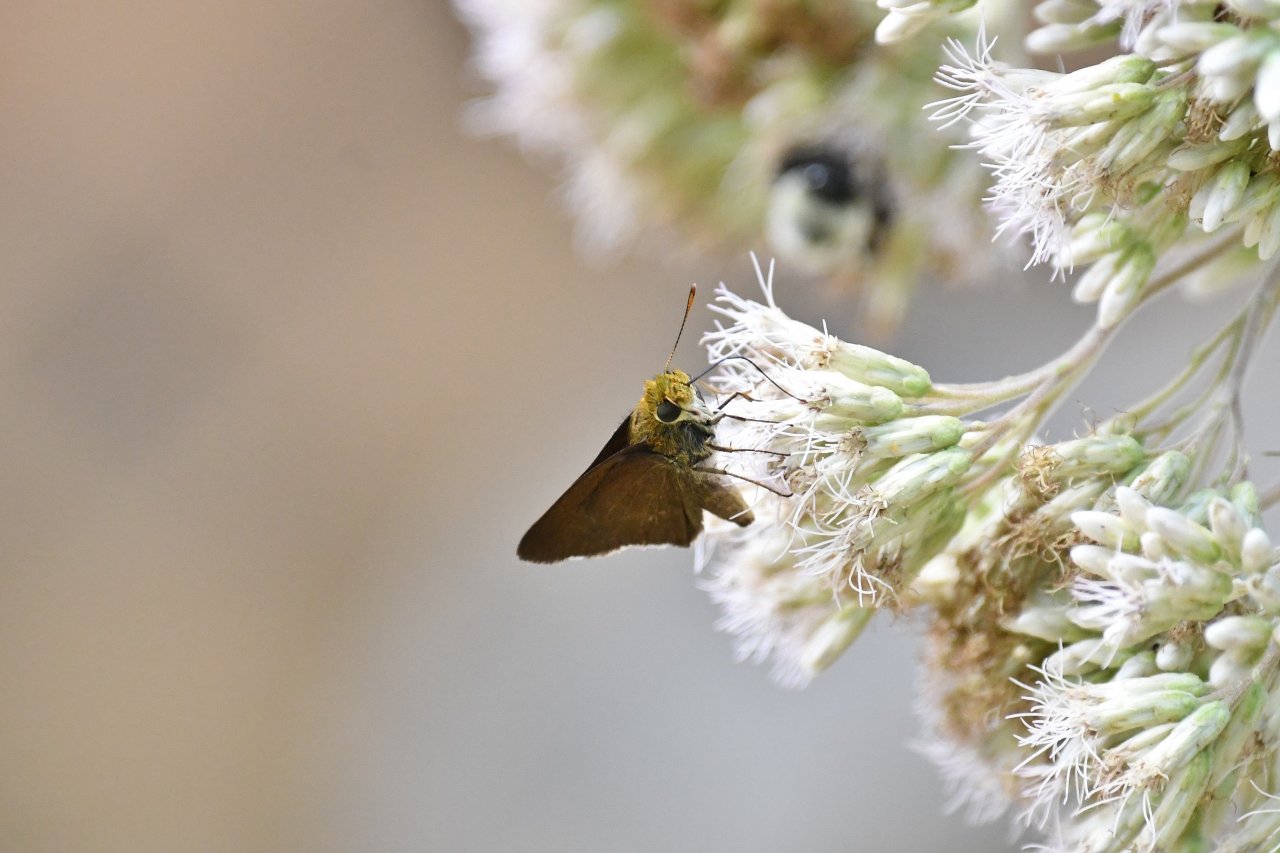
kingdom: Animalia
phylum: Arthropoda
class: Insecta
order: Lepidoptera
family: Hesperiidae
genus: Euphyes
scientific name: Euphyes vestris
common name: Dun Skipper
